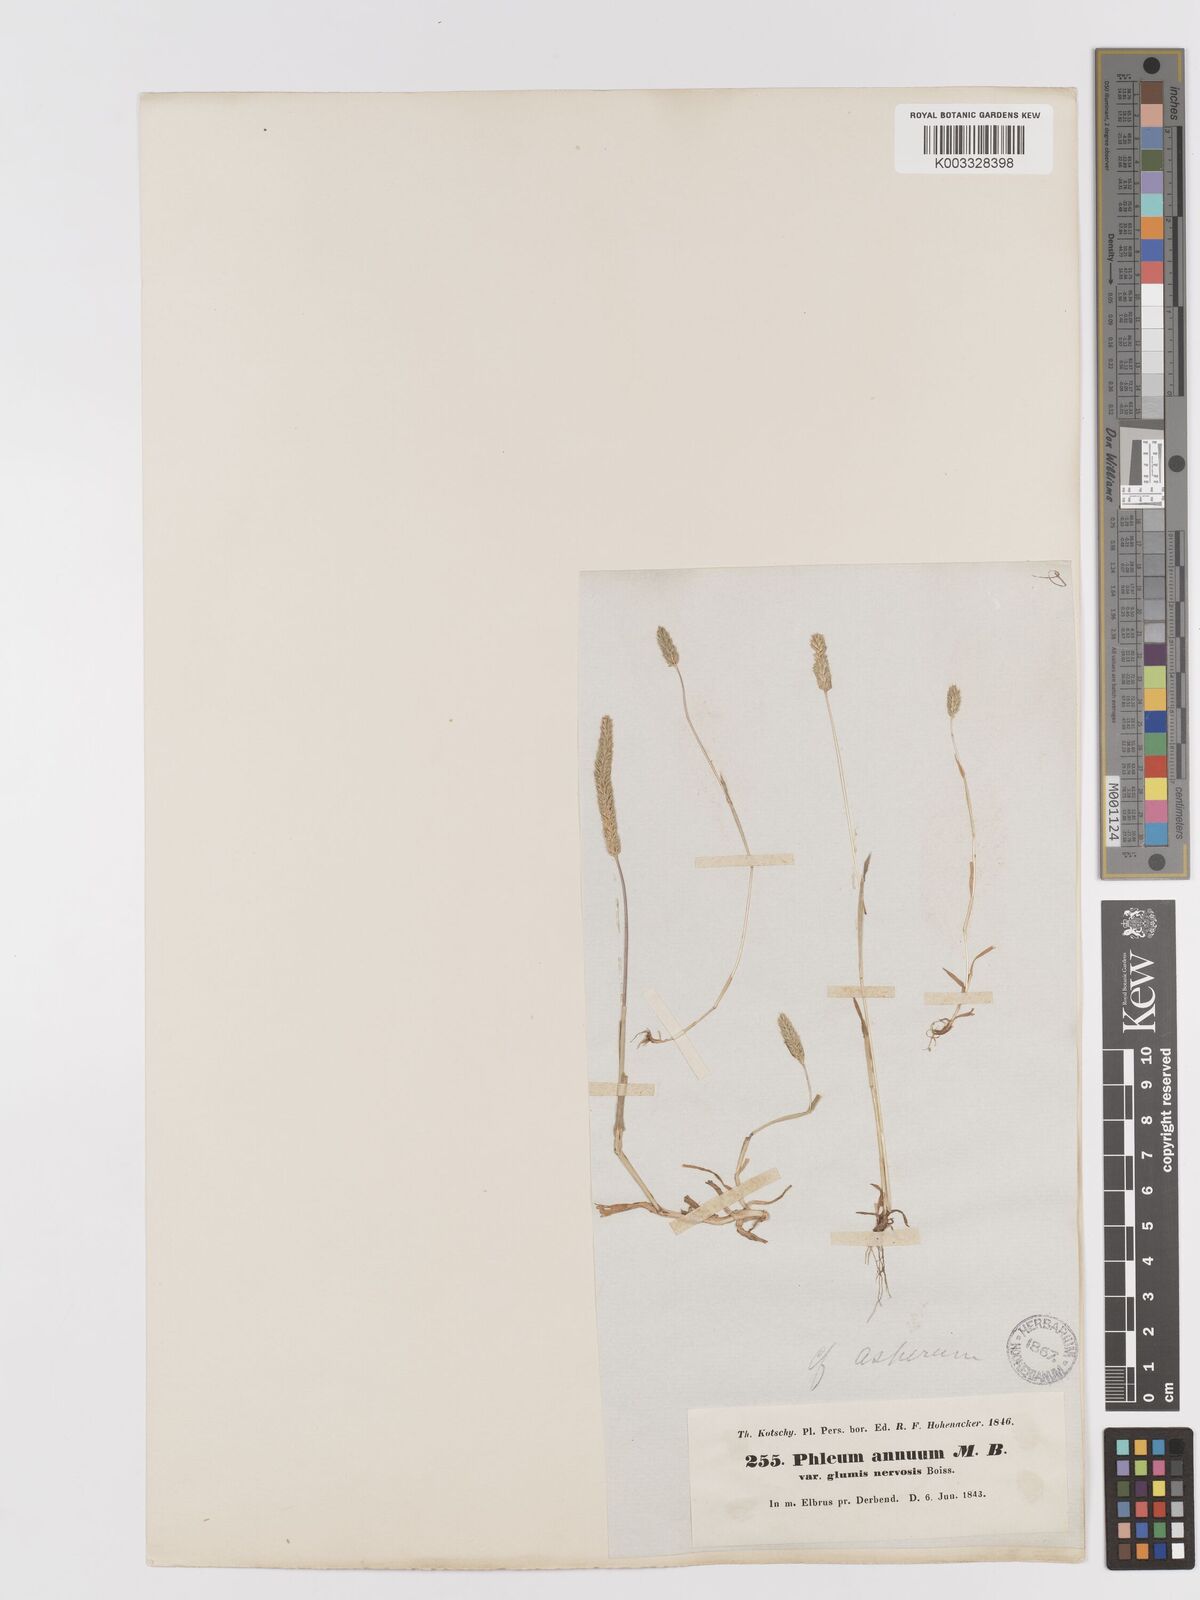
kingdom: Plantae
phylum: Tracheophyta
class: Liliopsida
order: Poales
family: Poaceae
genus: Phleum
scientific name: Phleum paniculatum
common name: British timothy
